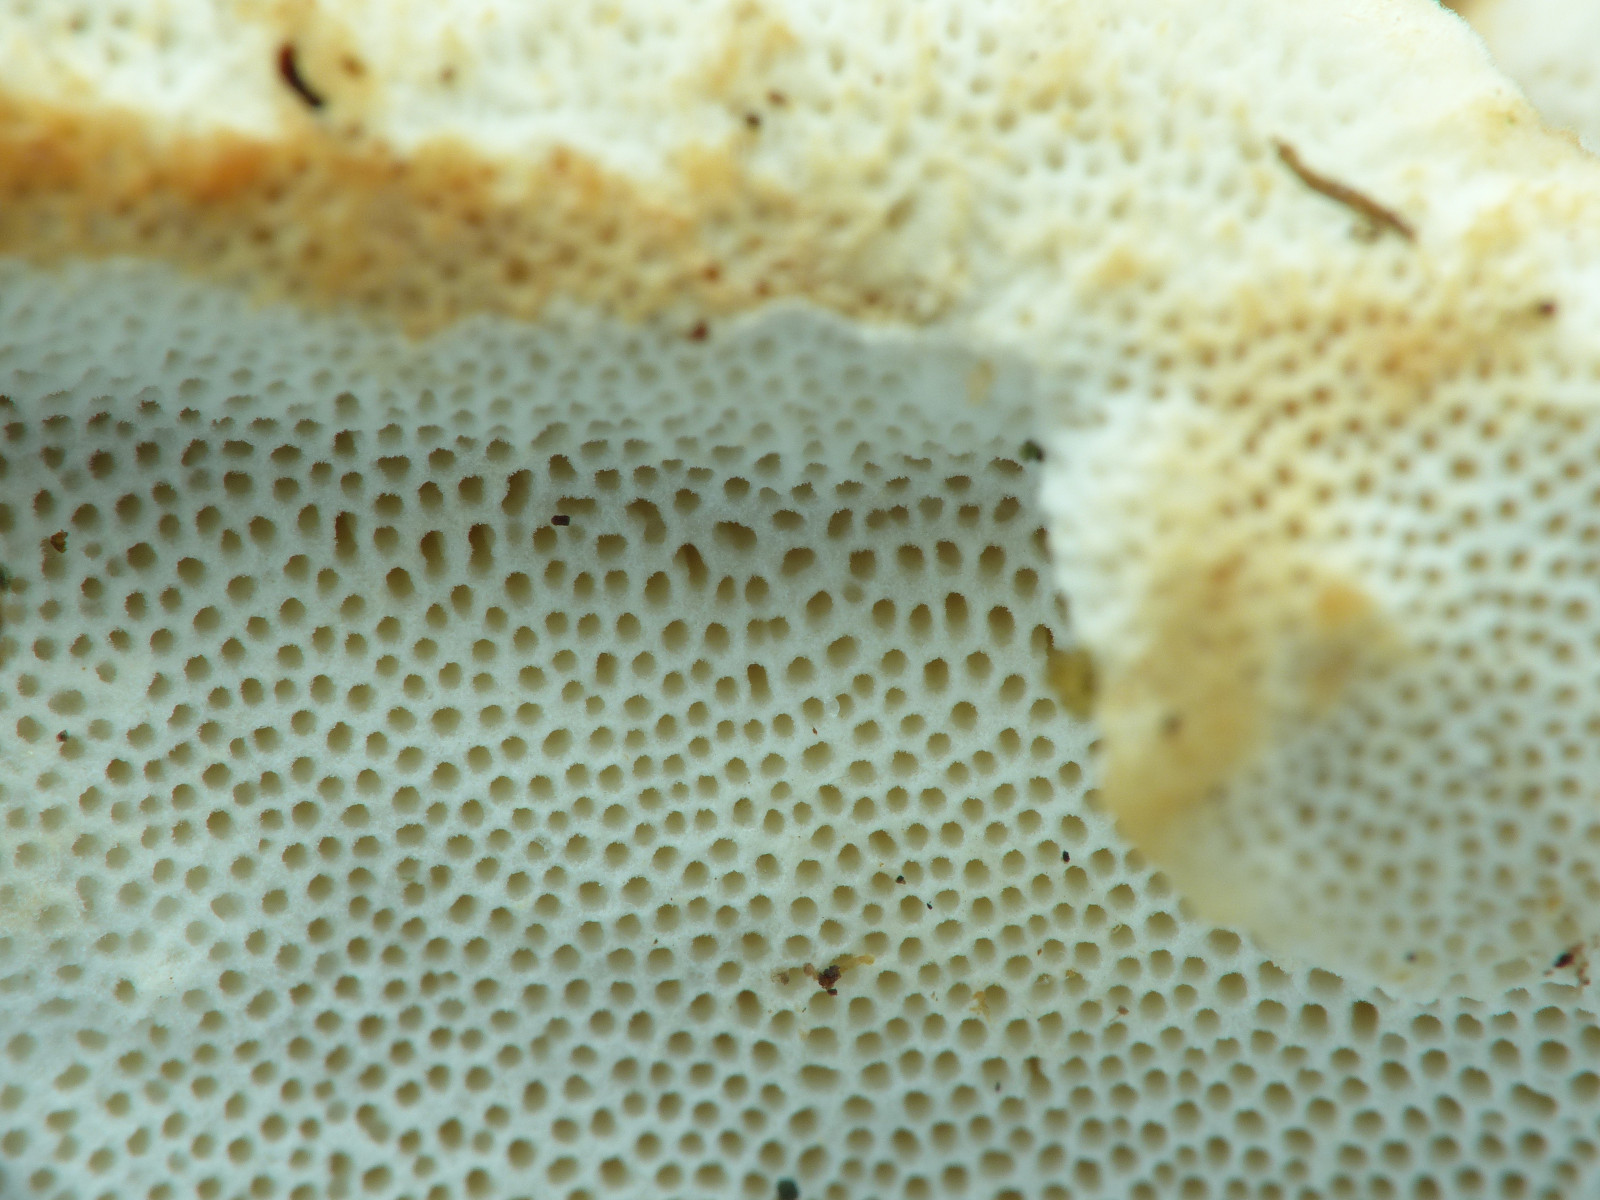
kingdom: Fungi
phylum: Basidiomycota
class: Agaricomycetes
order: Polyporales
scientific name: Polyporales
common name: poresvampordenen
